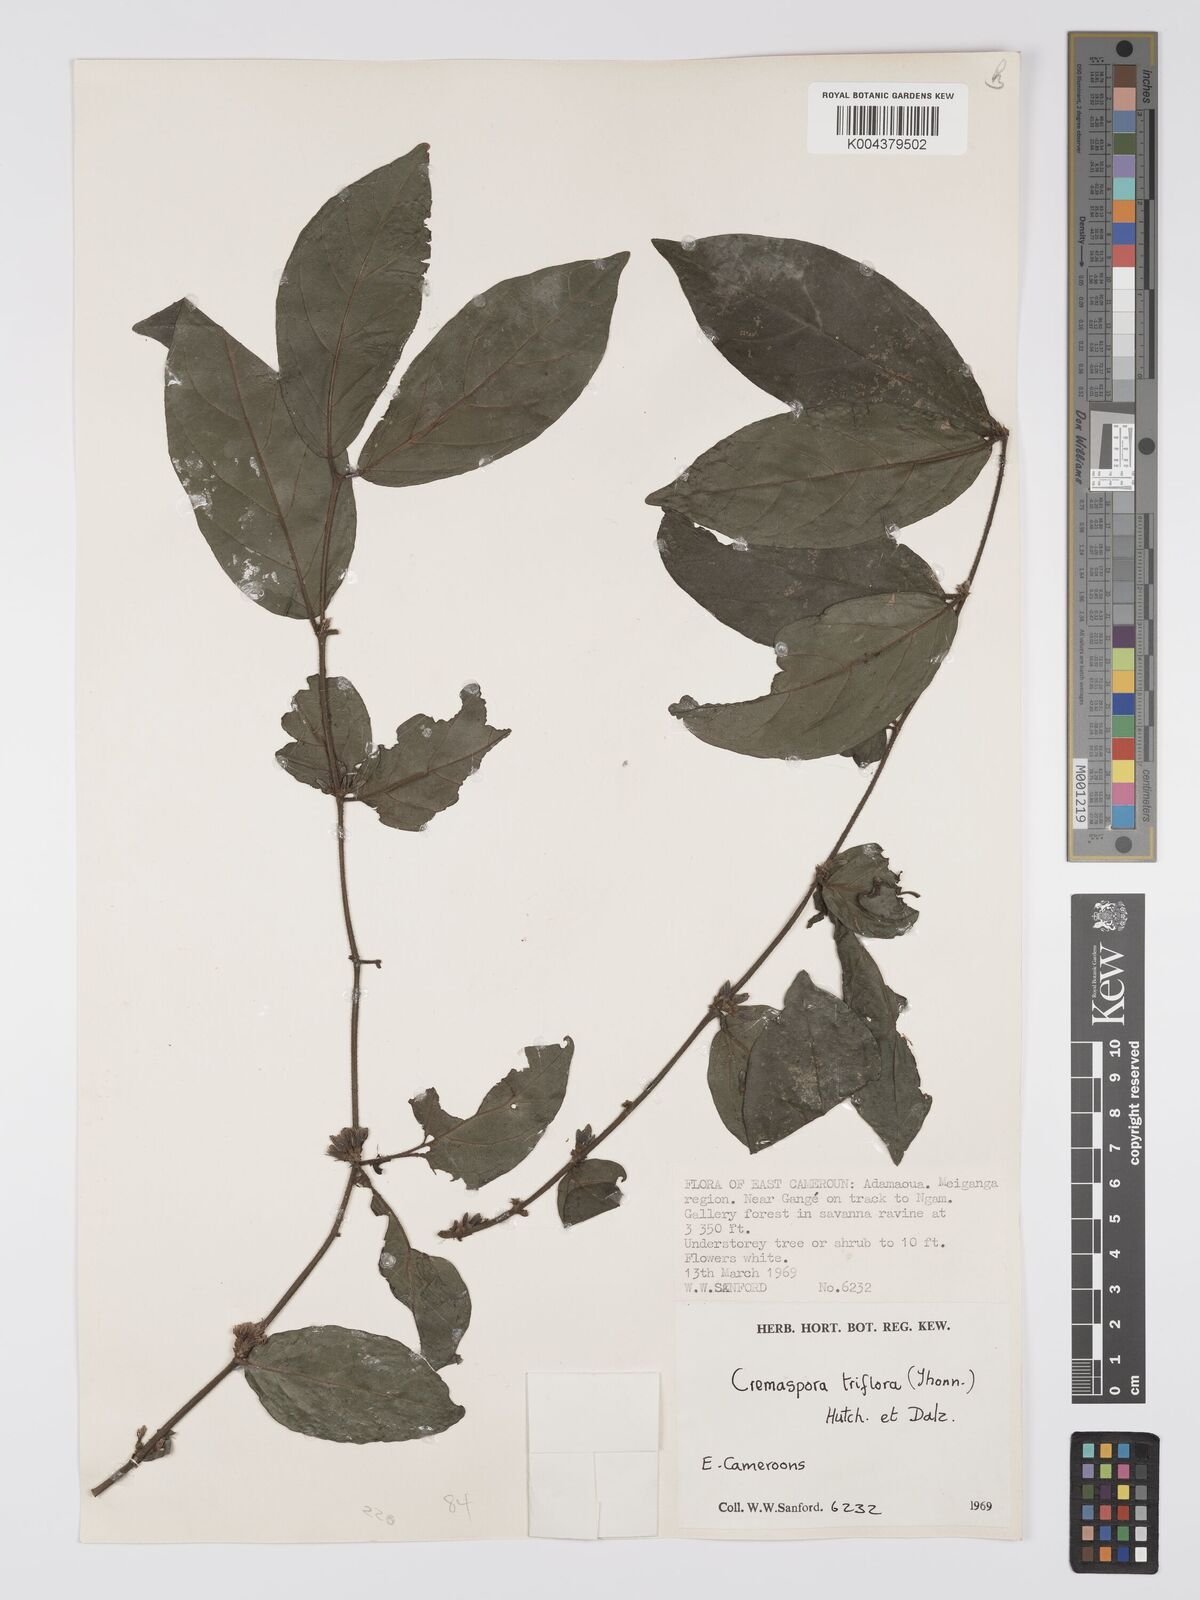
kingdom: Plantae
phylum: Tracheophyta
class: Magnoliopsida
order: Gentianales
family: Rubiaceae
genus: Cremaspora
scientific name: Cremaspora triflora
